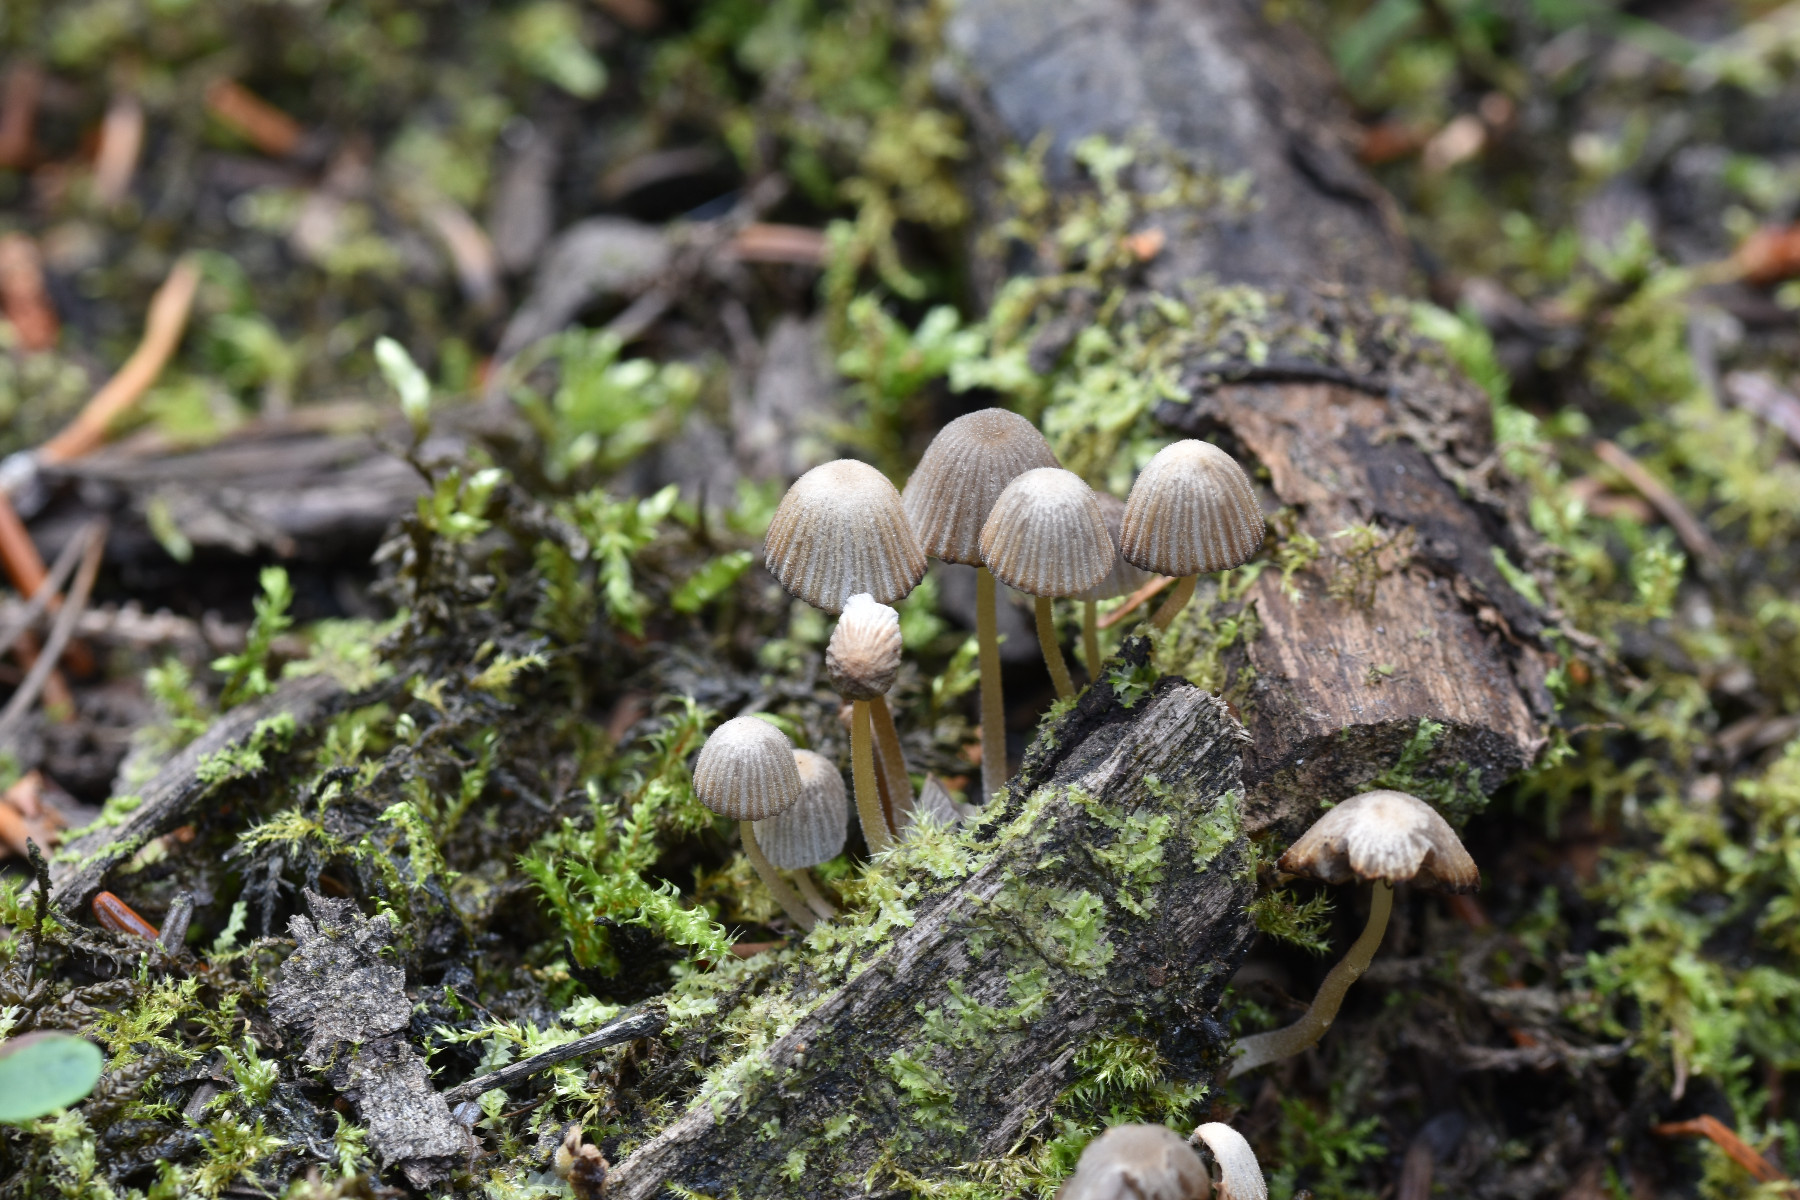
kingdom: Fungi
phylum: Basidiomycota
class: Agaricomycetes
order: Agaricales
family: Psathyrellaceae
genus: Coprinellus
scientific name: Coprinellus disseminatus
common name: bredsået blækhat
